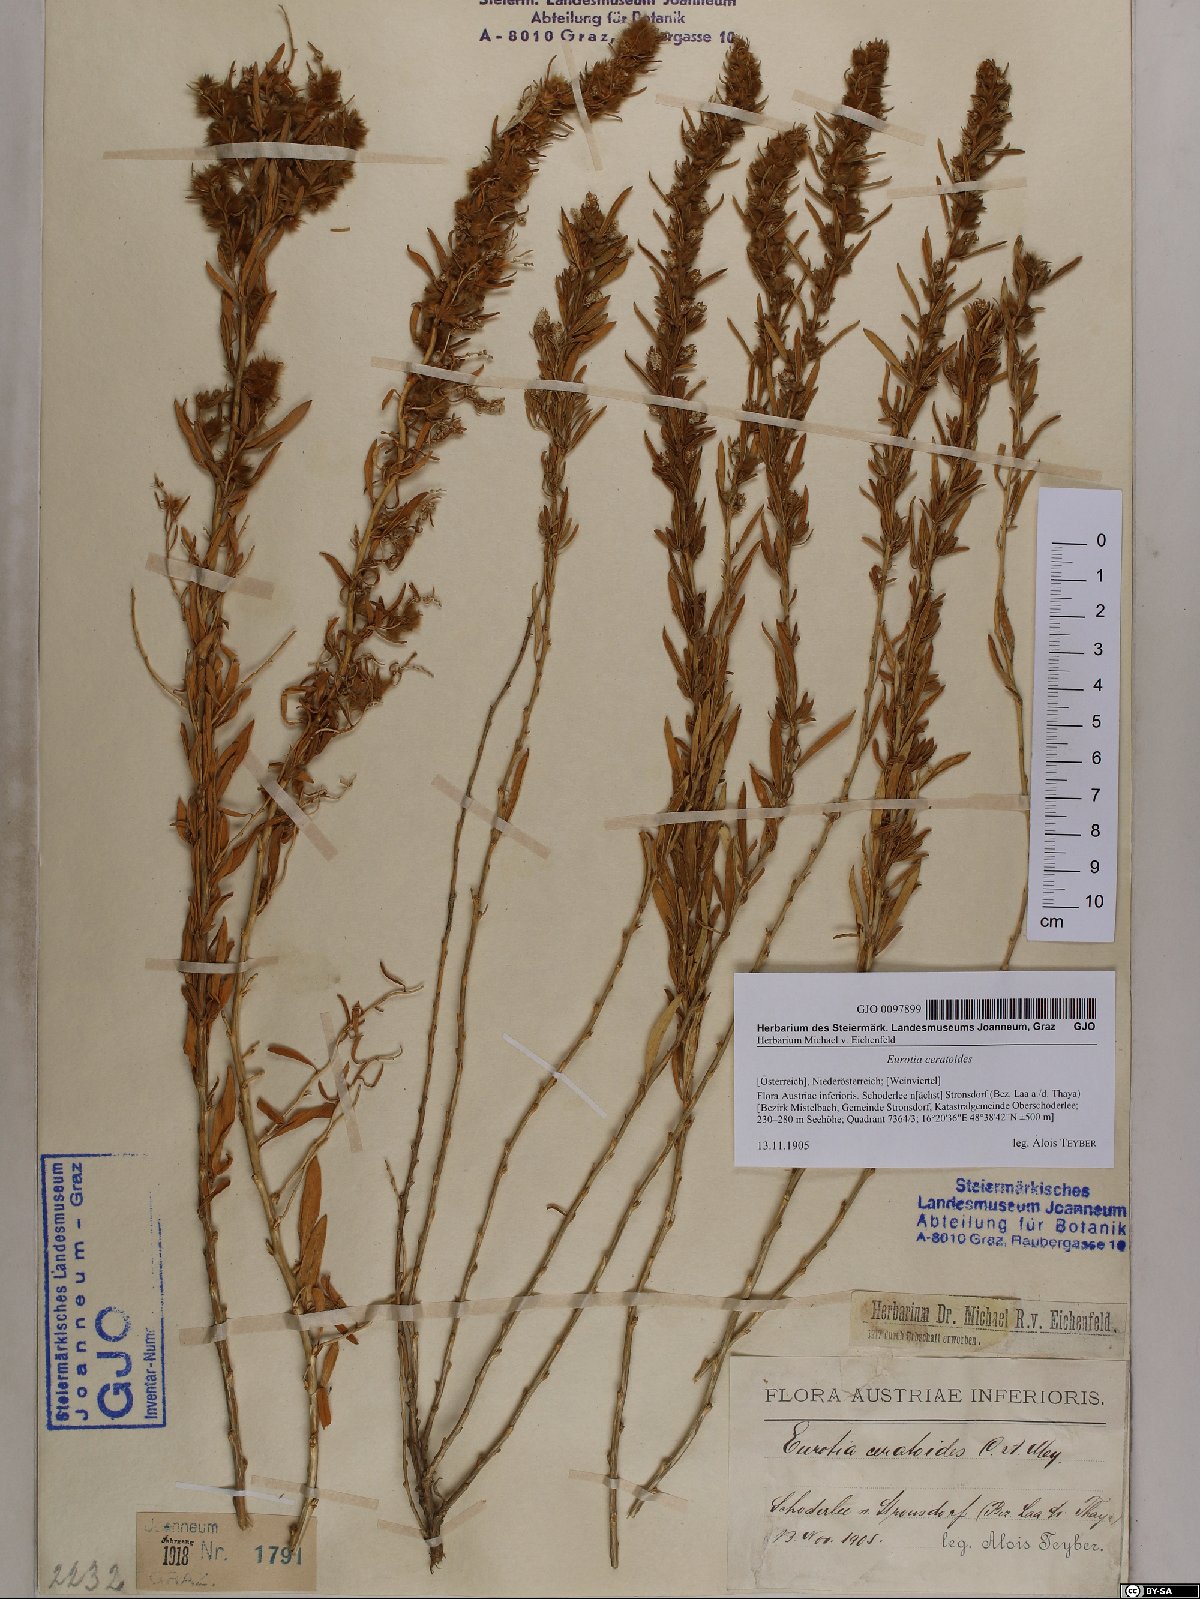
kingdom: Plantae
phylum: Tracheophyta
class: Magnoliopsida
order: Caryophyllales
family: Amaranthaceae
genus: Krascheninnikovia
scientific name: Krascheninnikovia ceratoides
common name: Pamirian winterfat
